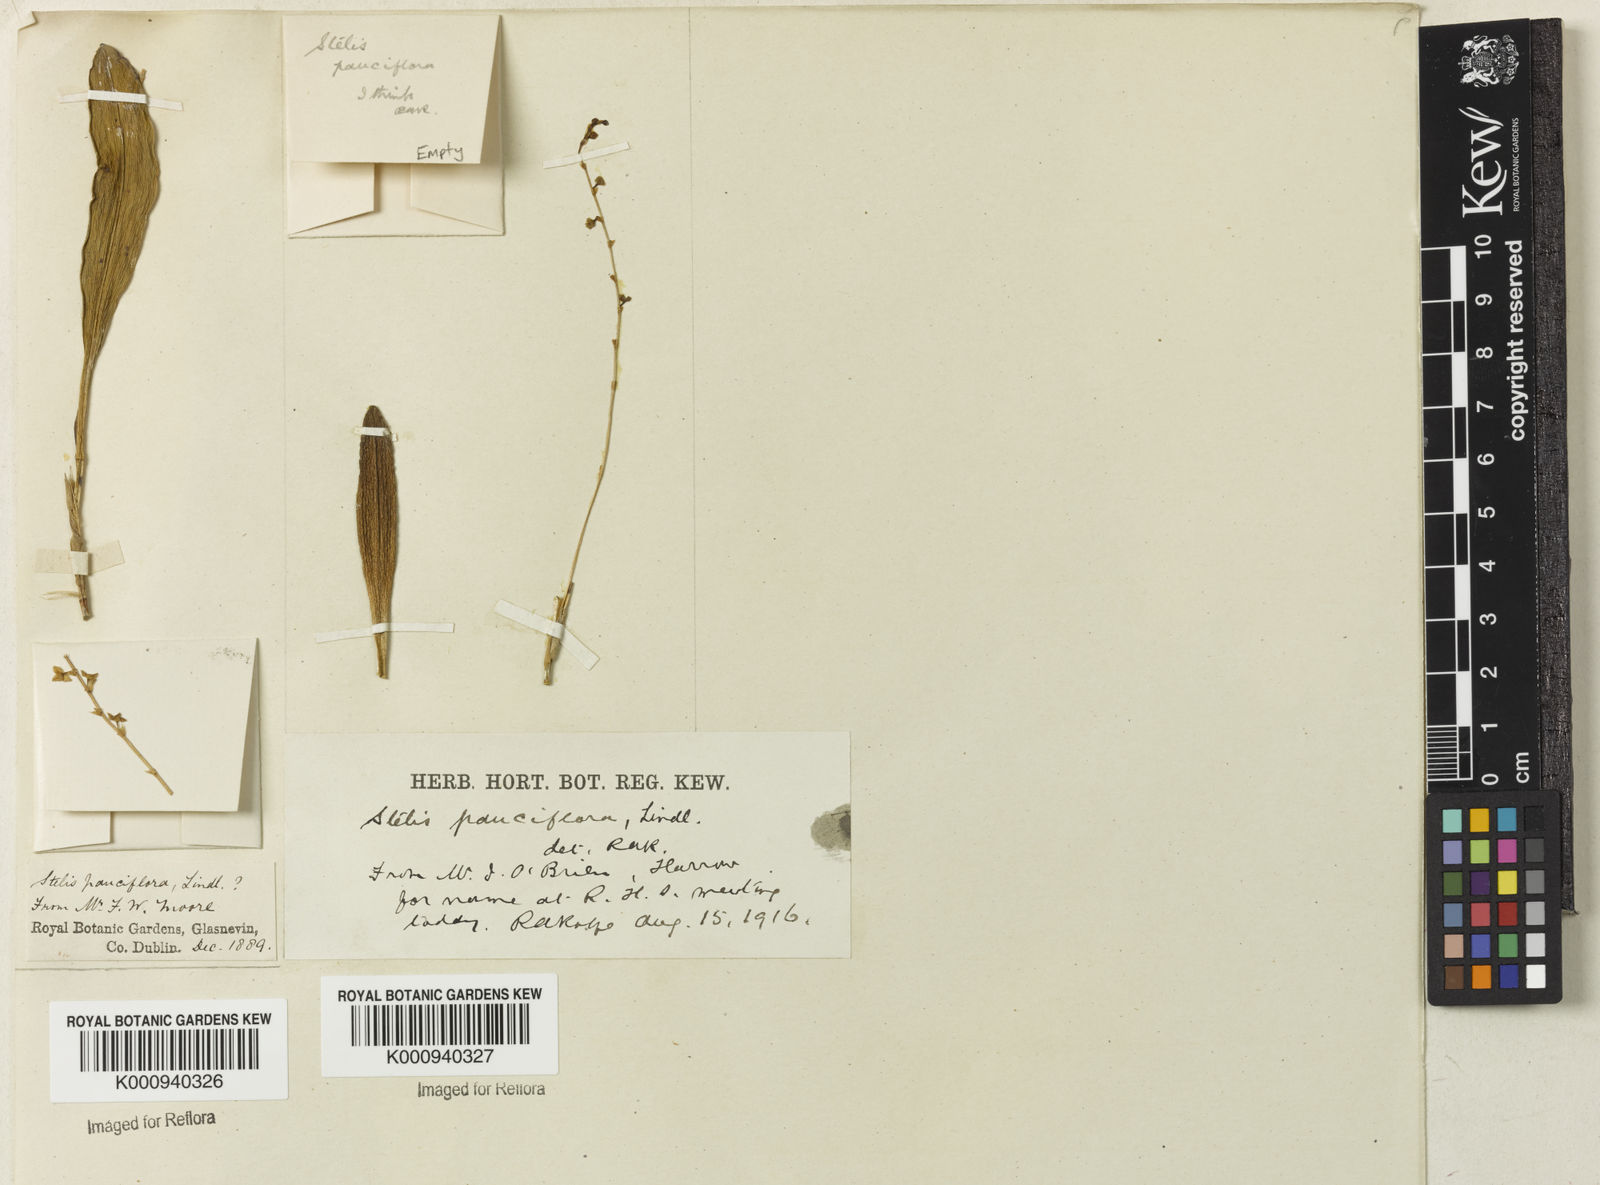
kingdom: Plantae
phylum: Tracheophyta
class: Liliopsida
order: Asparagales
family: Orchidaceae
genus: Stelis
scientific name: Stelis pauciflora
